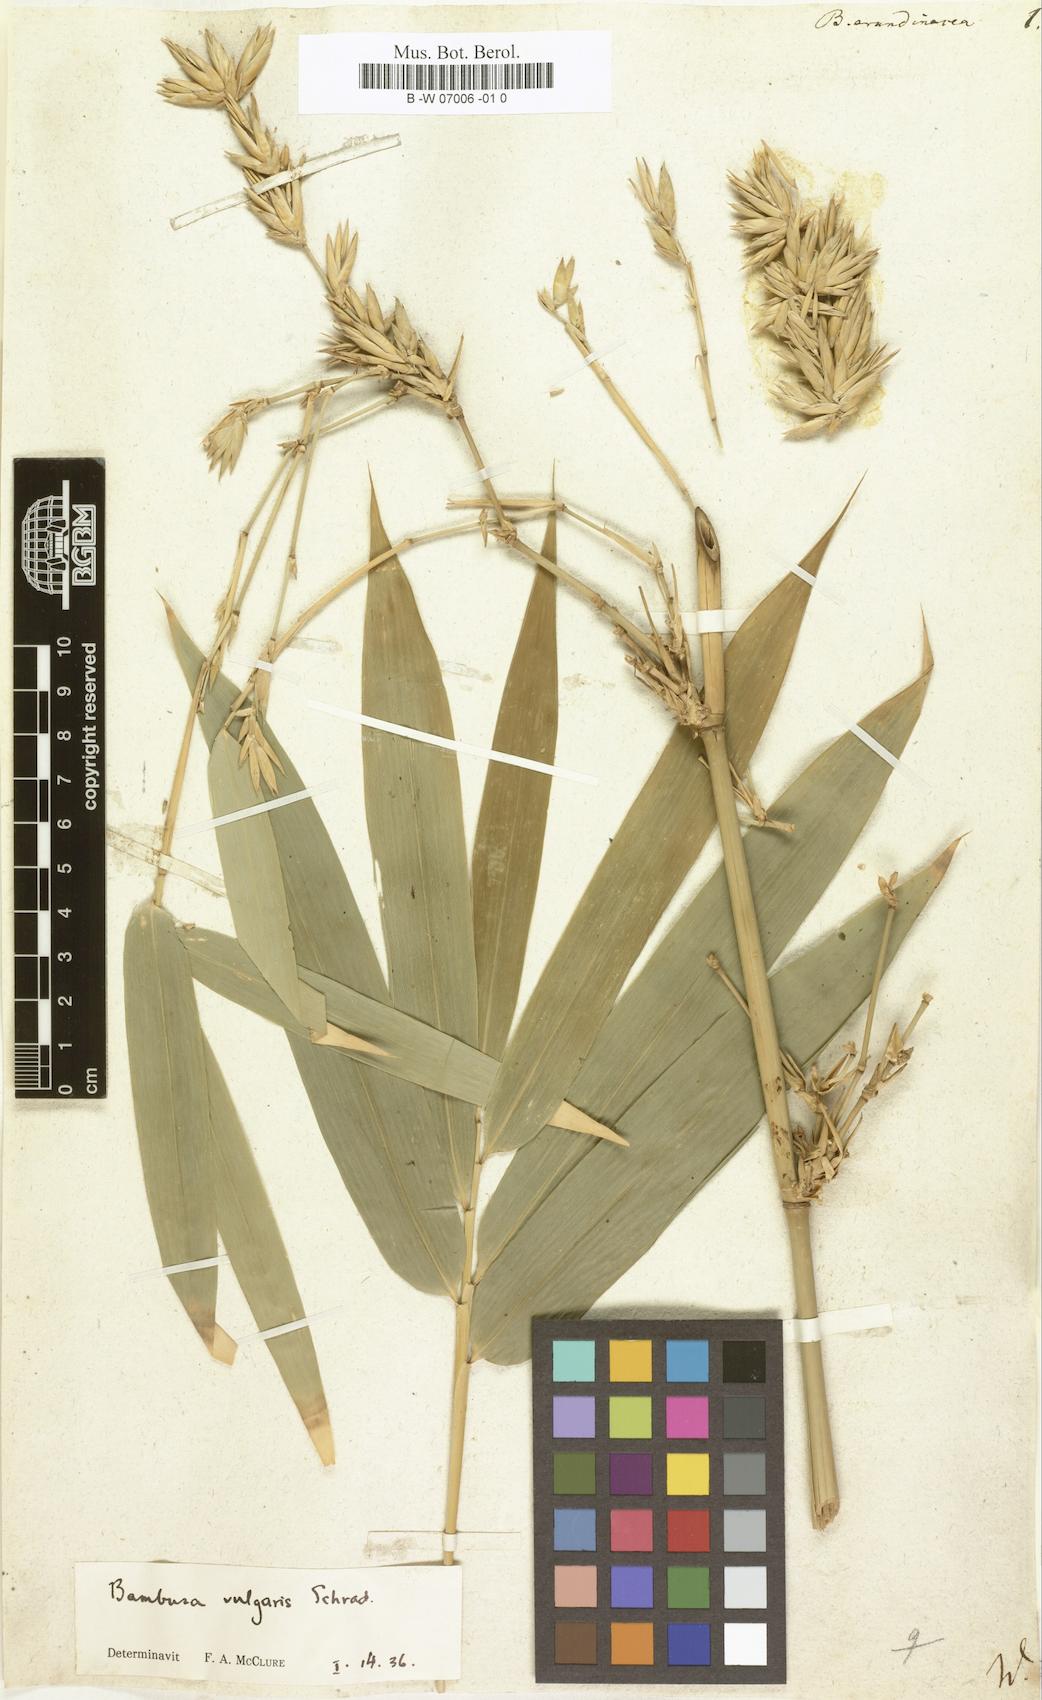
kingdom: Plantae
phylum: Tracheophyta
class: Liliopsida
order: Poales
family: Poaceae
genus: Bambusa
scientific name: Bambusa arundinacea
